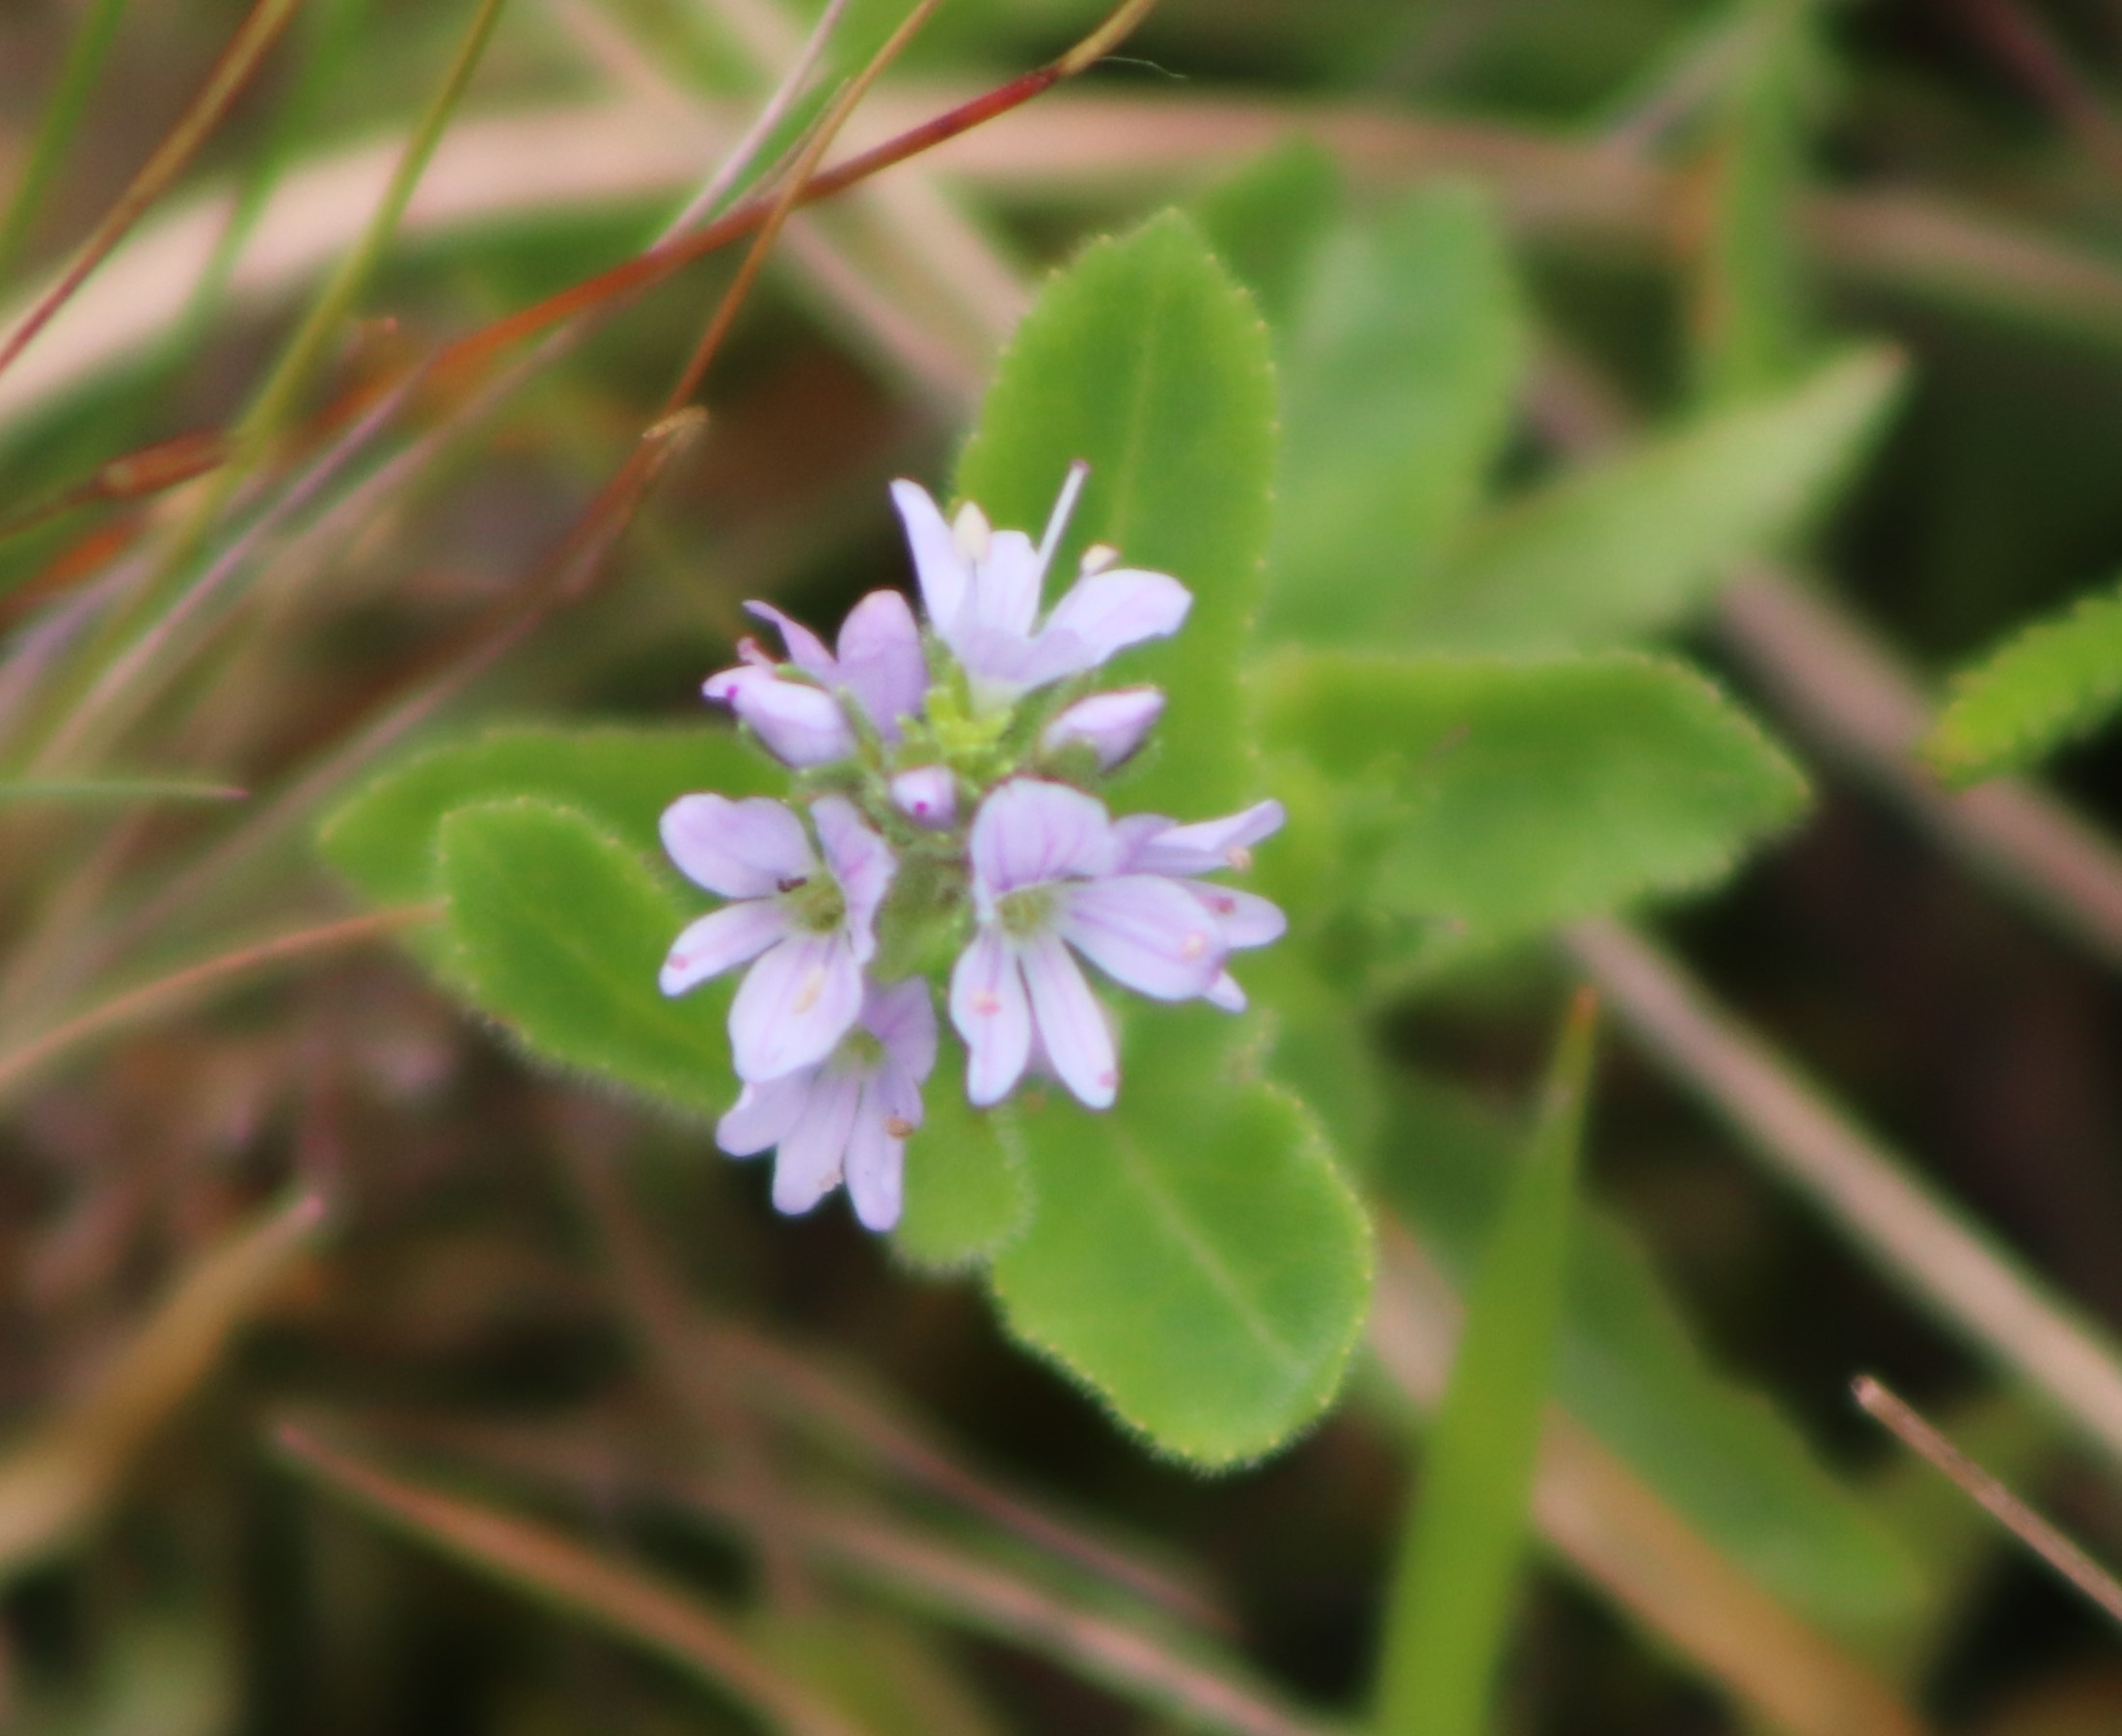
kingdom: Plantae
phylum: Tracheophyta
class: Magnoliopsida
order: Lamiales
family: Plantaginaceae
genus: Veronica
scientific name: Veronica officinalis
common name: Læge-ærenpris
